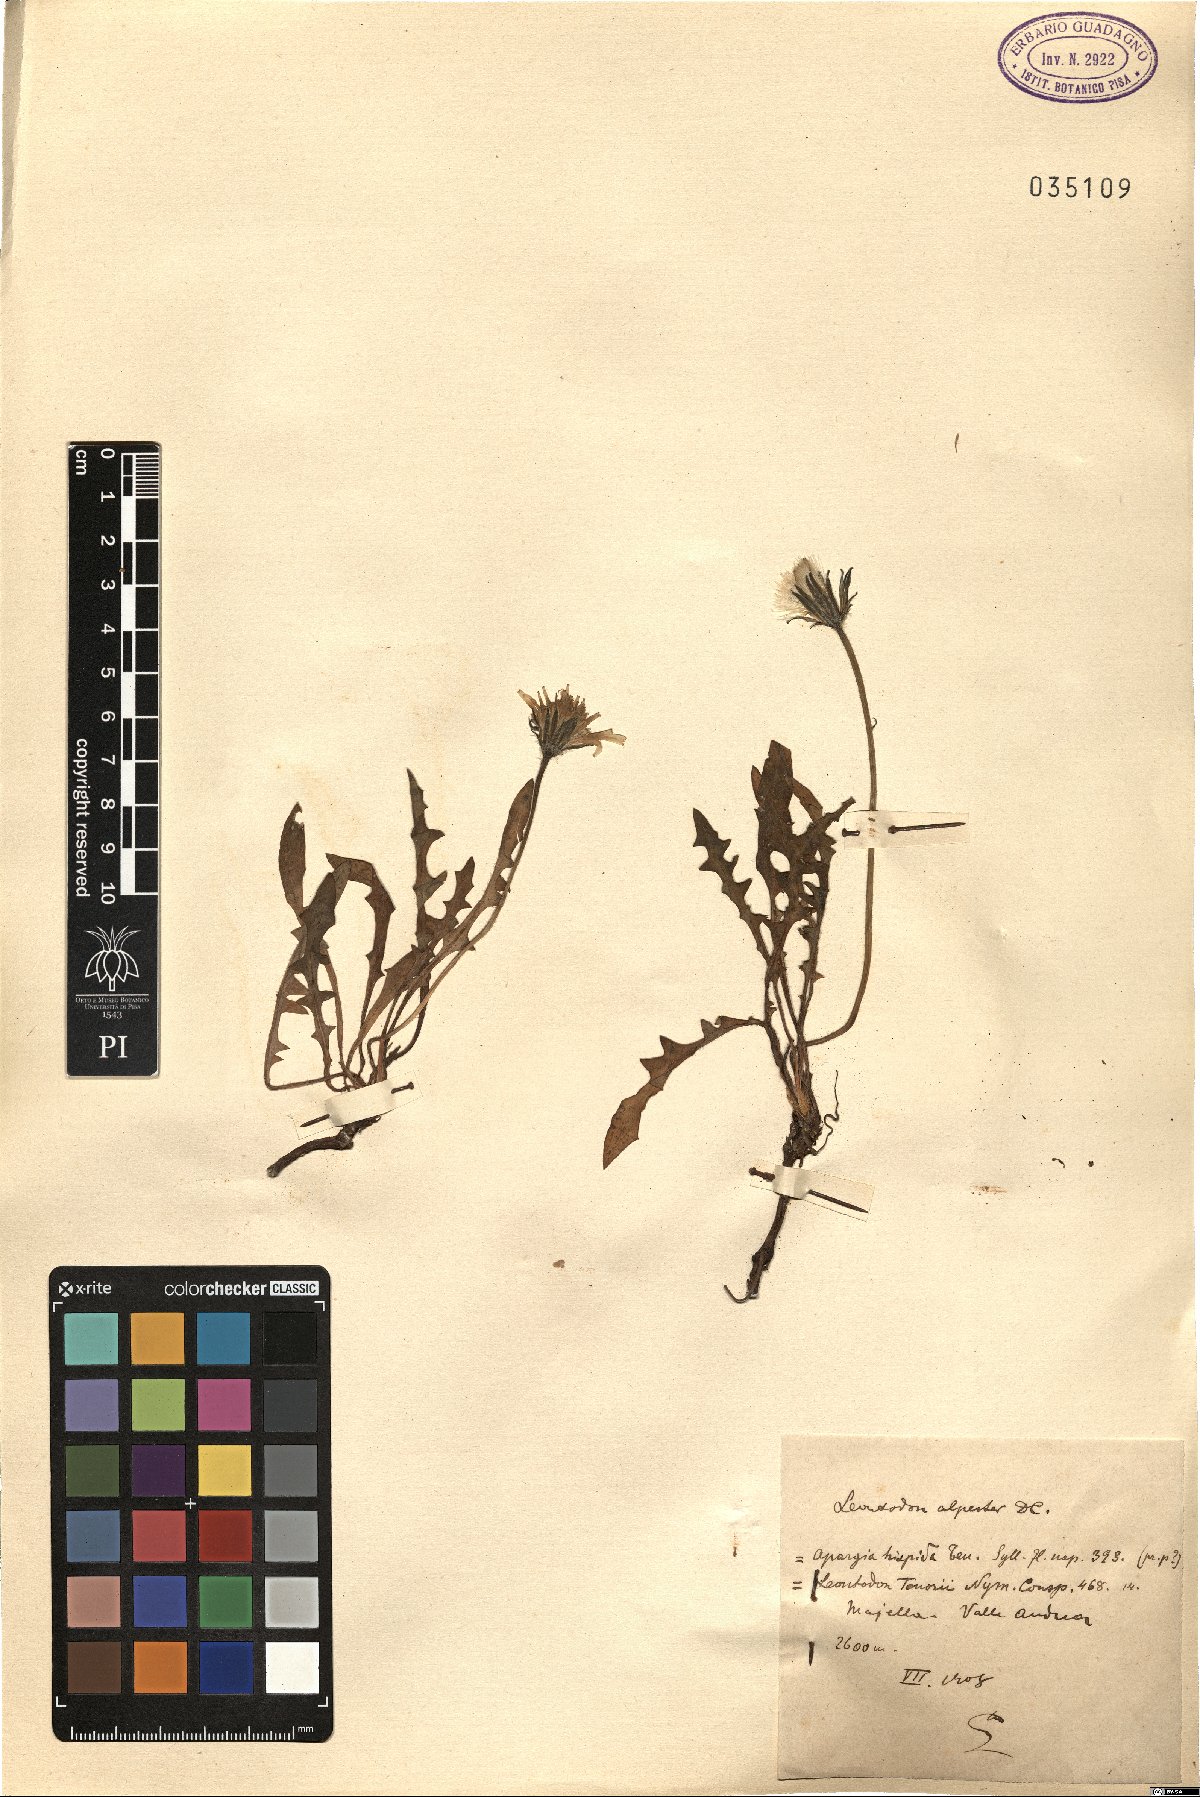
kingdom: Plantae
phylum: Tracheophyta
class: Magnoliopsida
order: Asterales
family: Asteraceae
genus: Leontodon
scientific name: Leontodon hyoseroides
